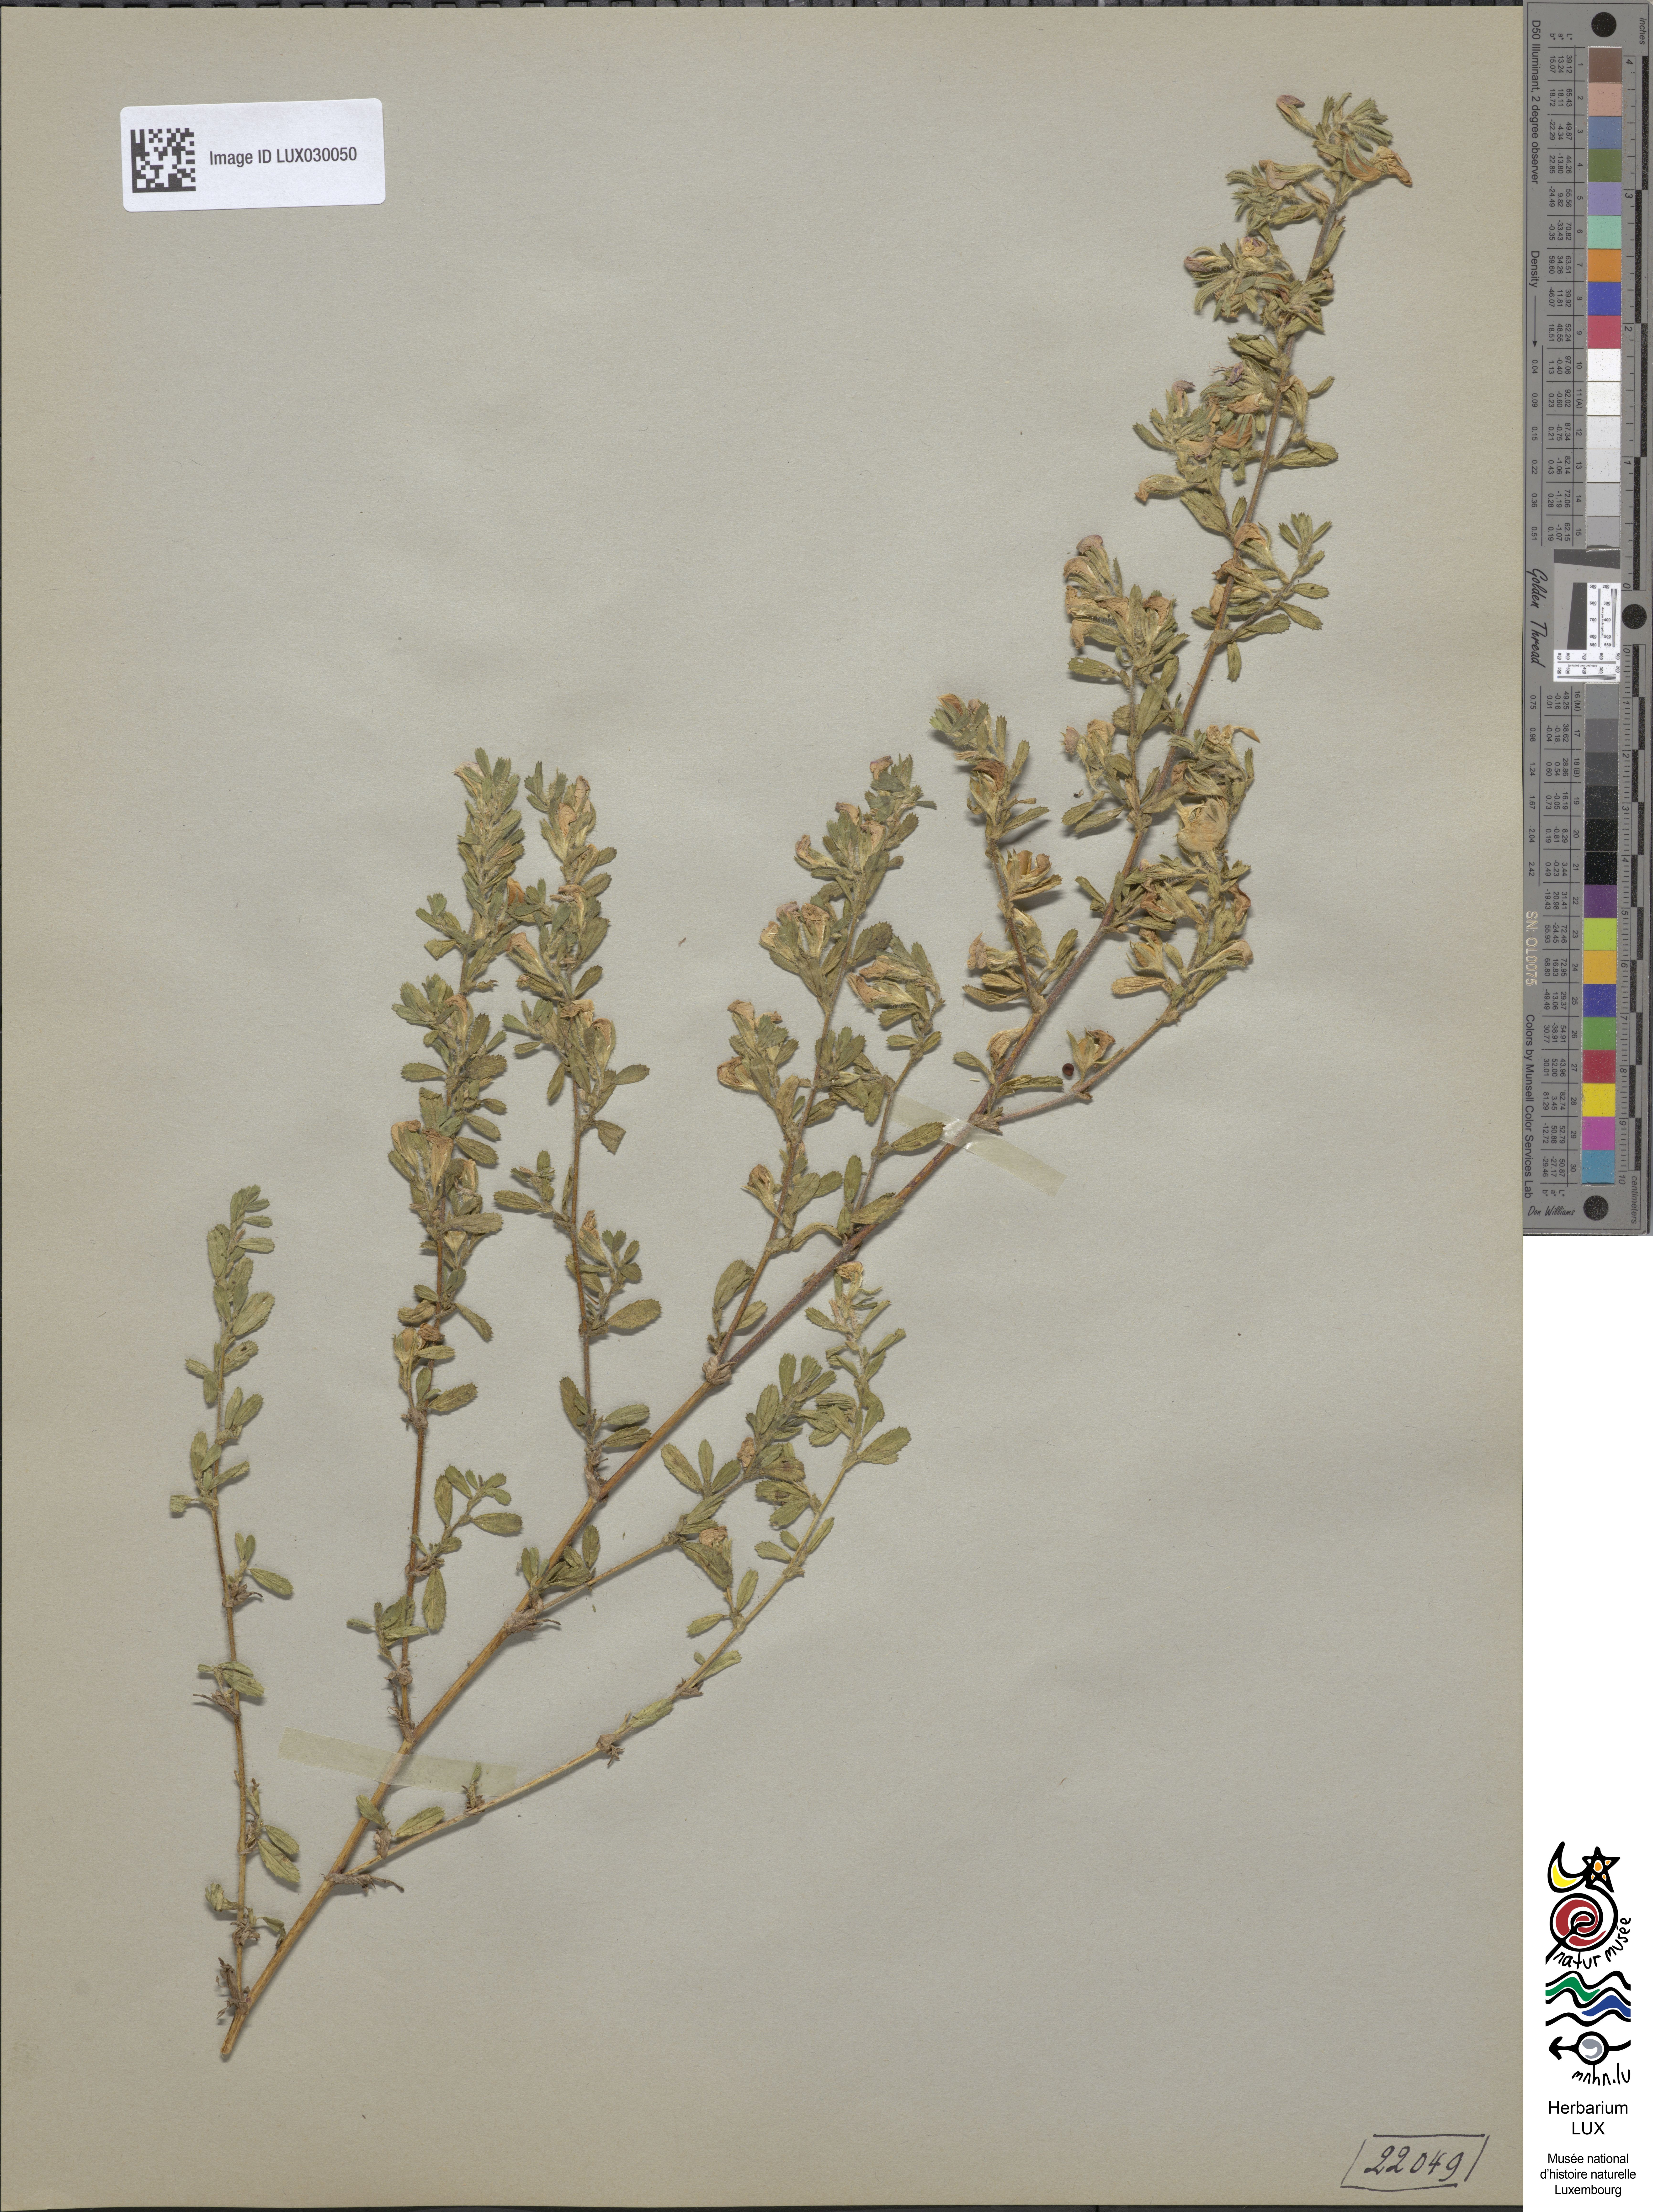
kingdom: Plantae
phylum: Tracheophyta
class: Magnoliopsida
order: Fabales
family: Fabaceae
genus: Ononis
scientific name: Ononis spinosa
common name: Spiny restharrow
